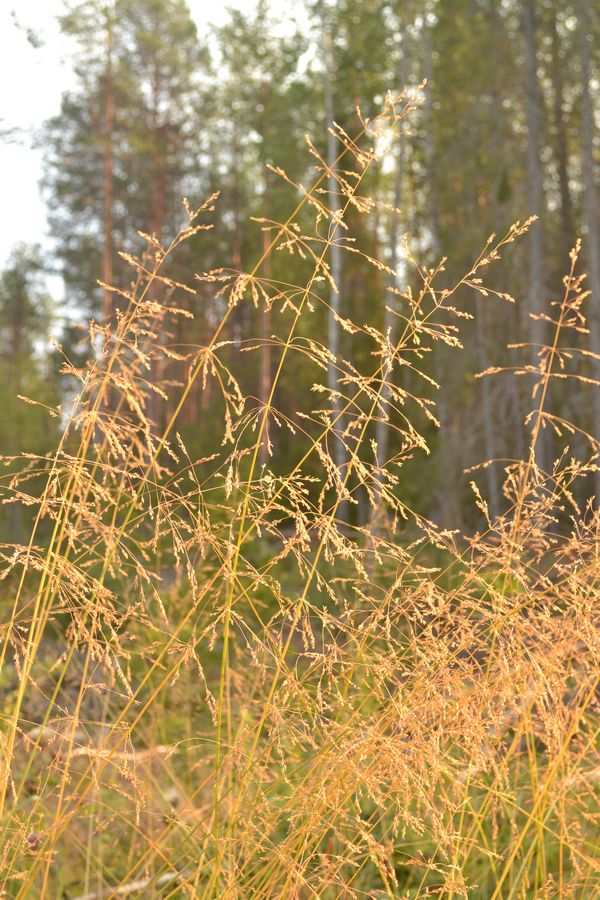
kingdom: Plantae
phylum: Tracheophyta
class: Liliopsida
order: Poales
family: Poaceae
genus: Milium
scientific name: Milium effusum
